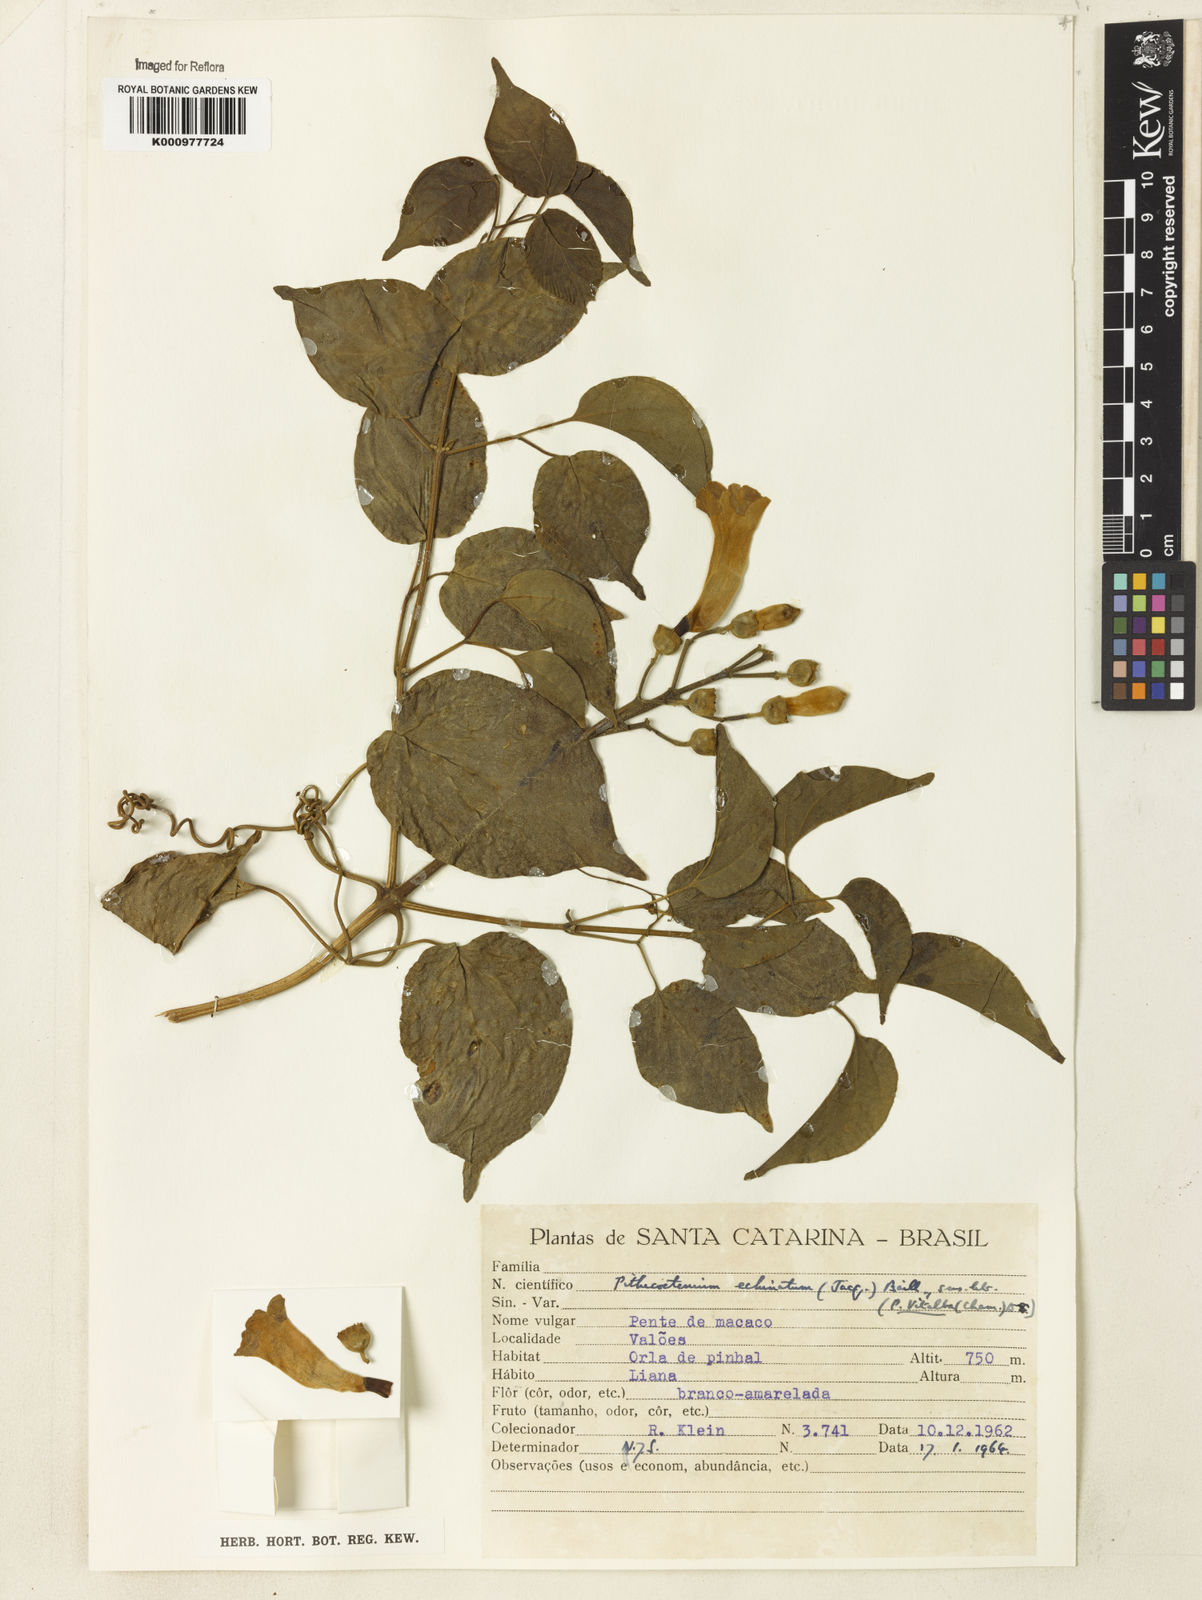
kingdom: Plantae
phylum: Tracheophyta
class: Magnoliopsida
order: Lamiales
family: Bignoniaceae
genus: Amphilophium
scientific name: Amphilophium crucigerum
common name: Monkey comb
